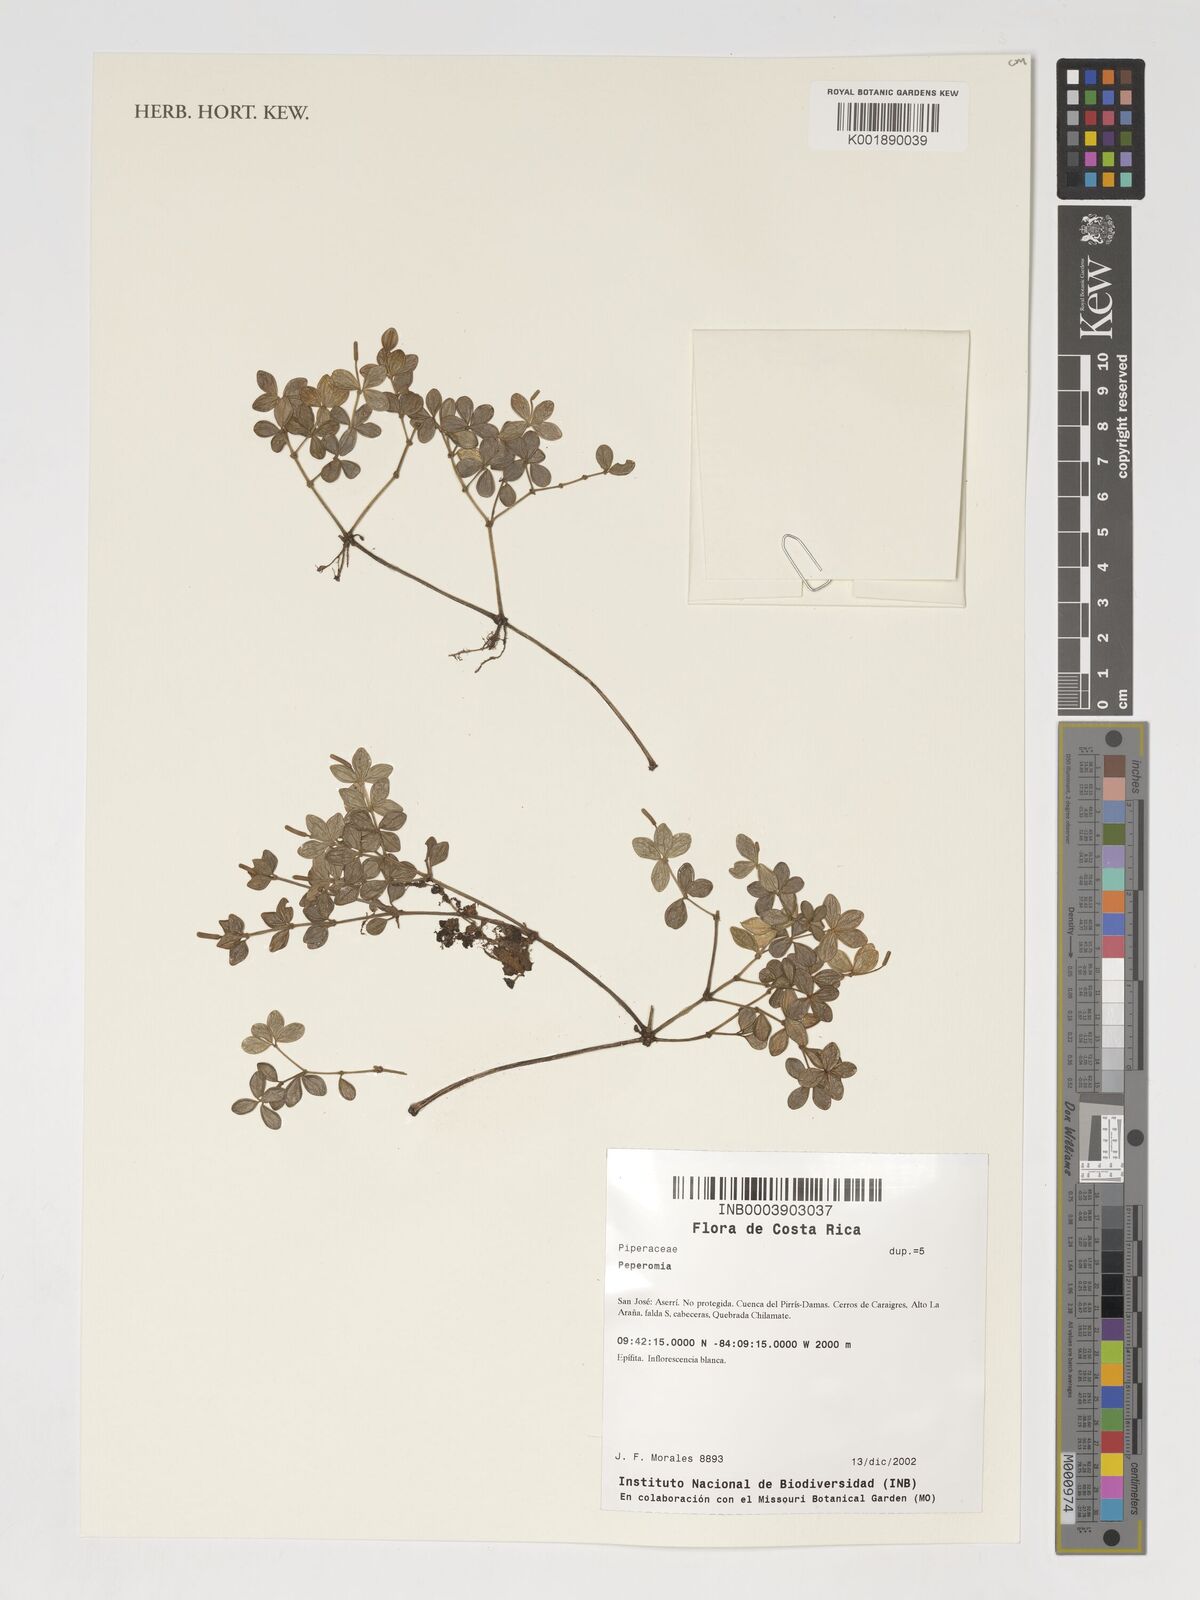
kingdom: Plantae
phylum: Tracheophyta
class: Magnoliopsida
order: Piperales
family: Piperaceae
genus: Peperomia
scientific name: Peperomia
